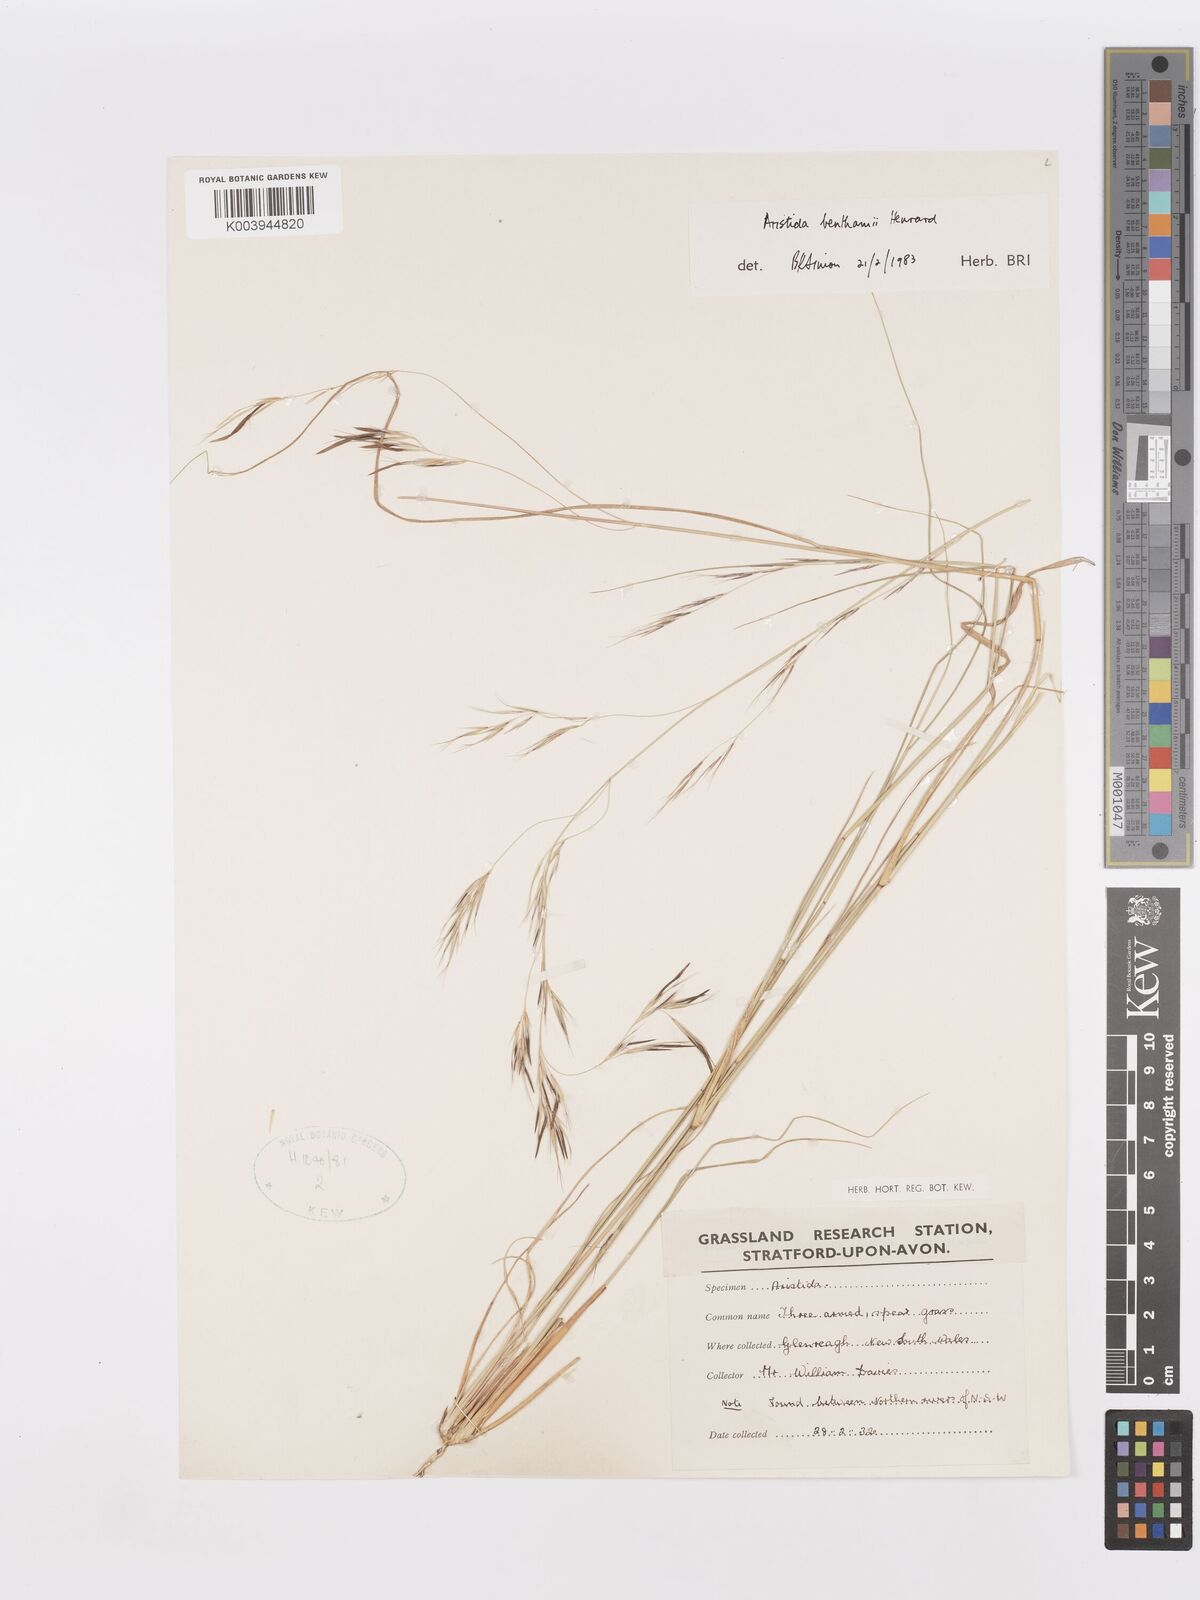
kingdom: Plantae
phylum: Tracheophyta
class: Liliopsida
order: Poales
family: Poaceae
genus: Aristida
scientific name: Aristida benthamii
